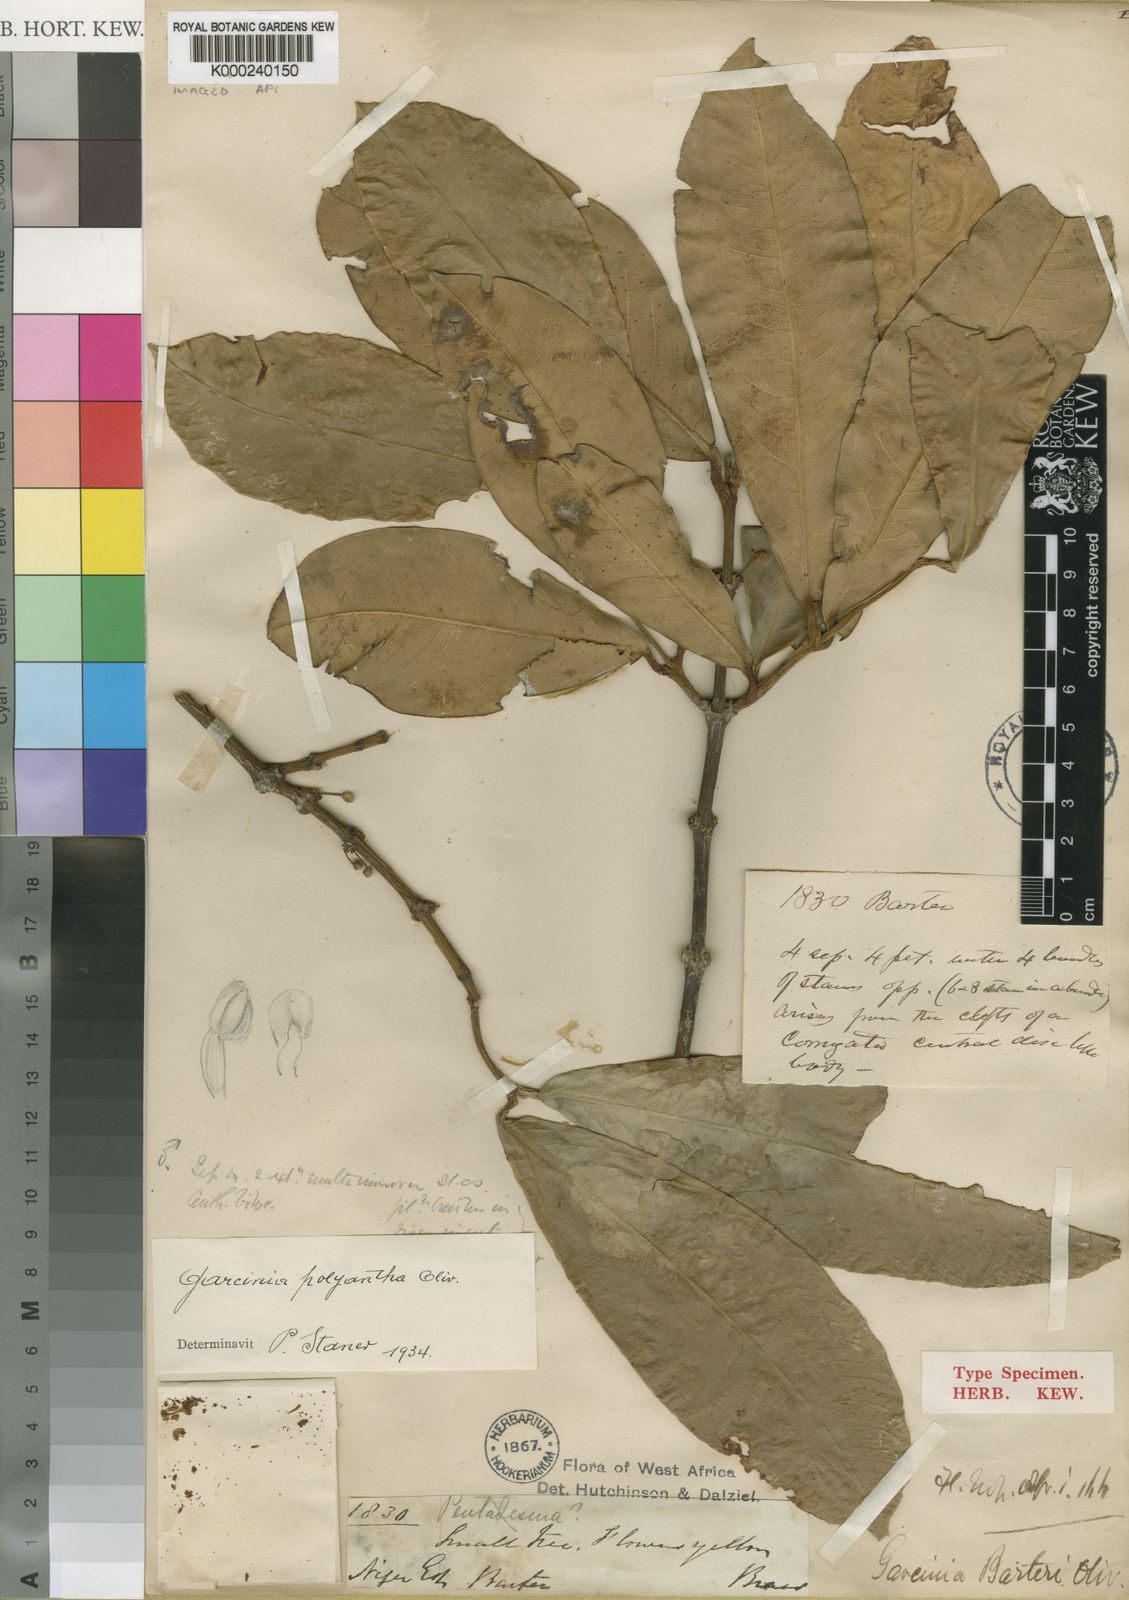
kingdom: Plantae
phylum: Tracheophyta
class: Magnoliopsida
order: Malpighiales
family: Clusiaceae
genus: Garcinia
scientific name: Garcinia smeathmannii
